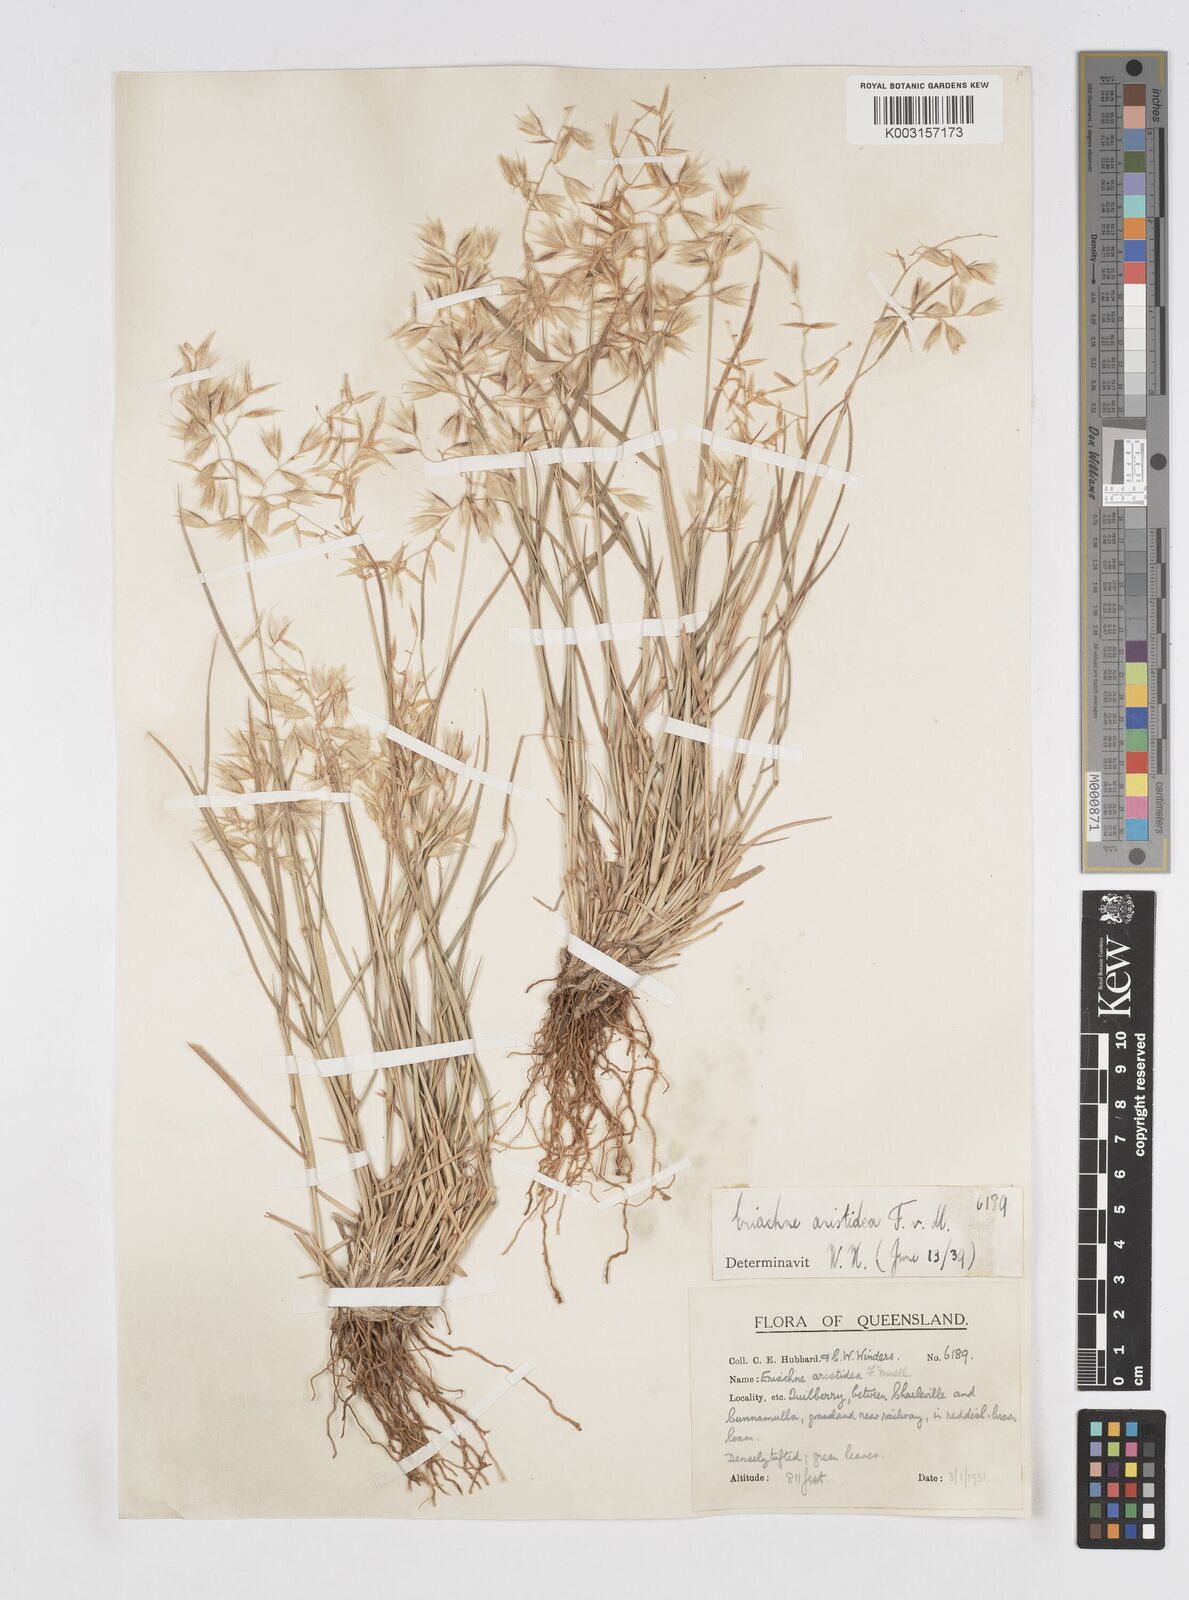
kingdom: Plantae
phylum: Tracheophyta
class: Liliopsida
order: Poales
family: Poaceae
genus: Eriachne
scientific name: Eriachne aristidea
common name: Three-awn wanderrie grass
